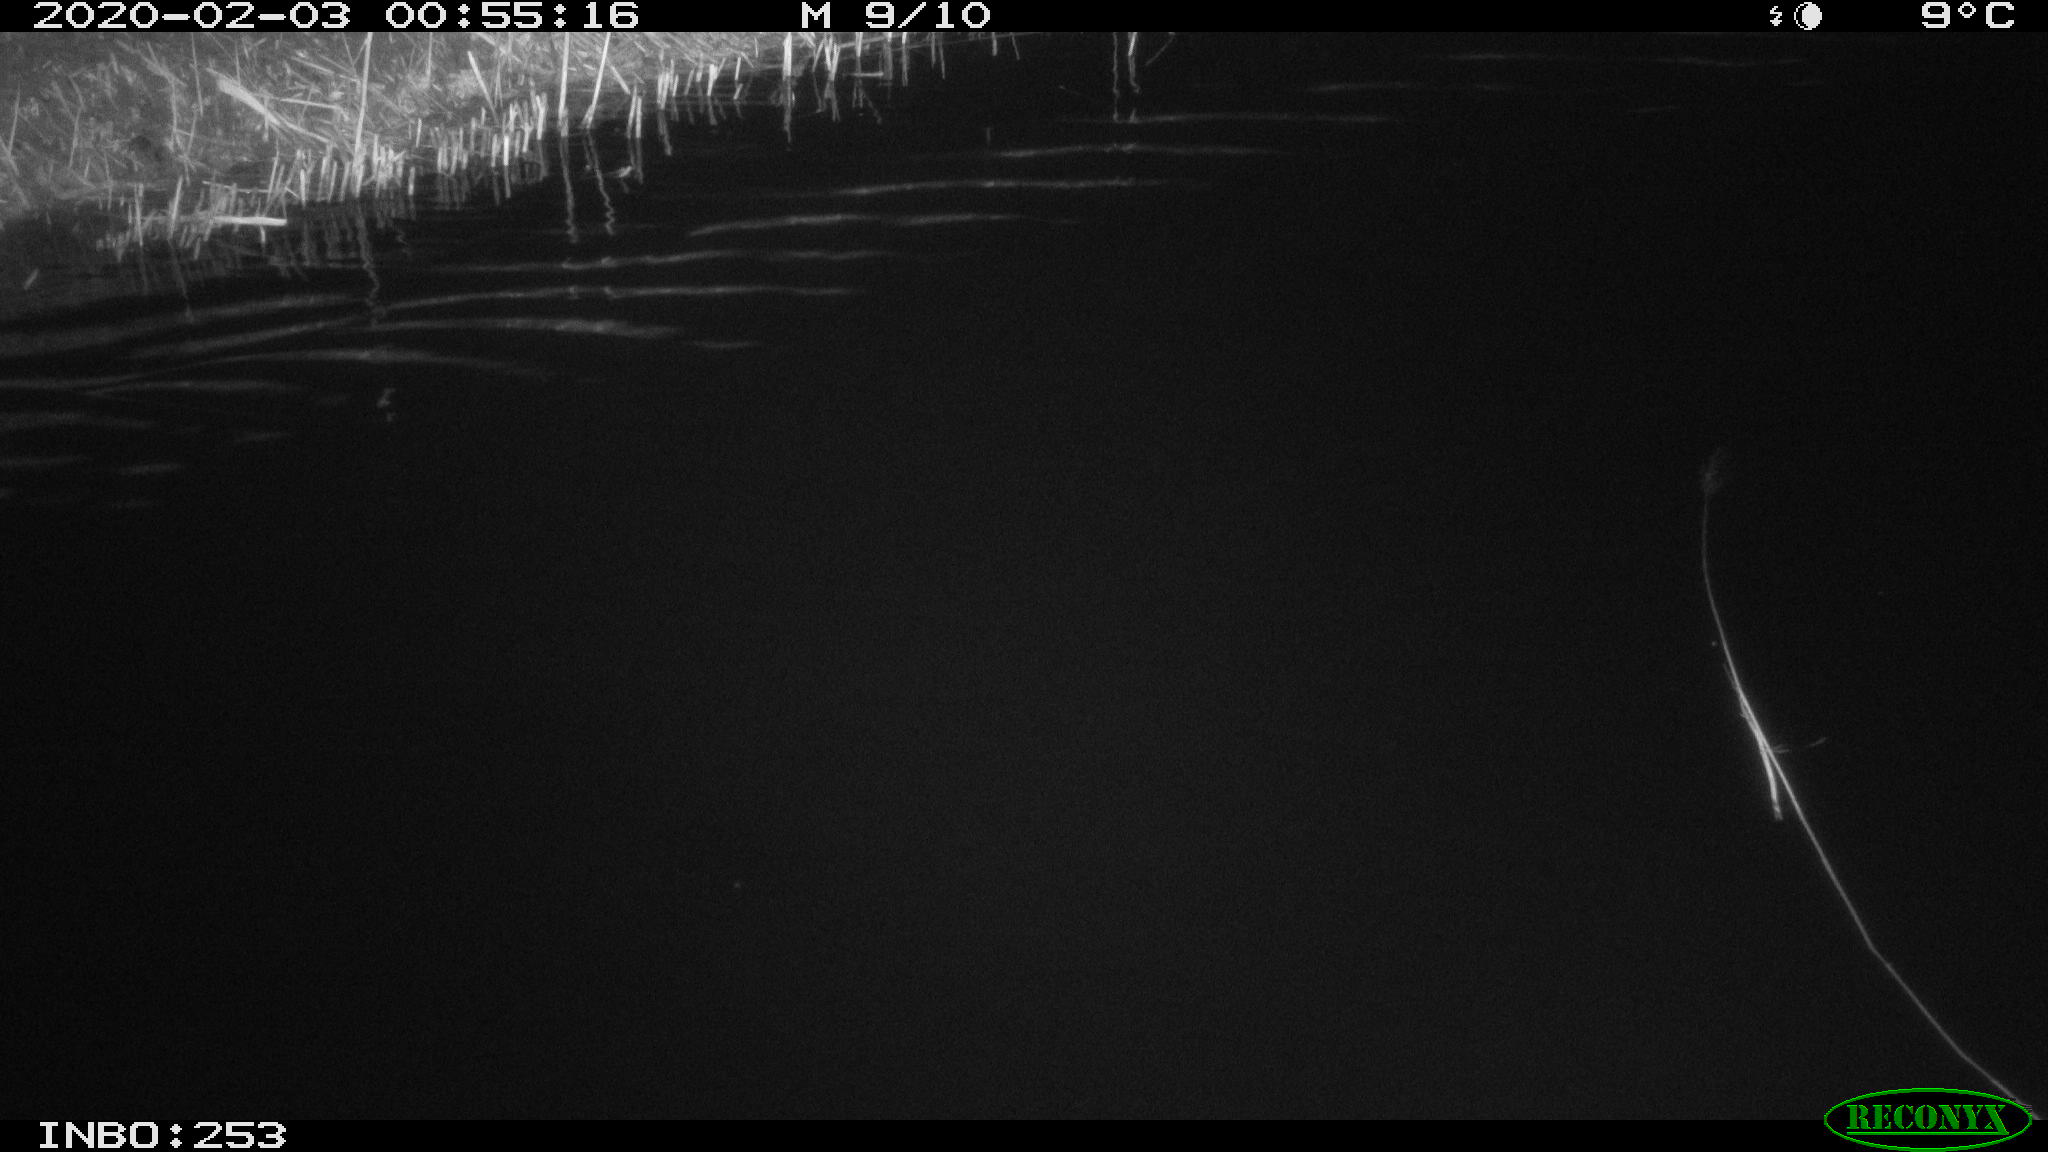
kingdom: Animalia
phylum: Chordata
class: Mammalia
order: Rodentia
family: Cricetidae
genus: Ondatra
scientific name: Ondatra zibethicus
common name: Muskrat
